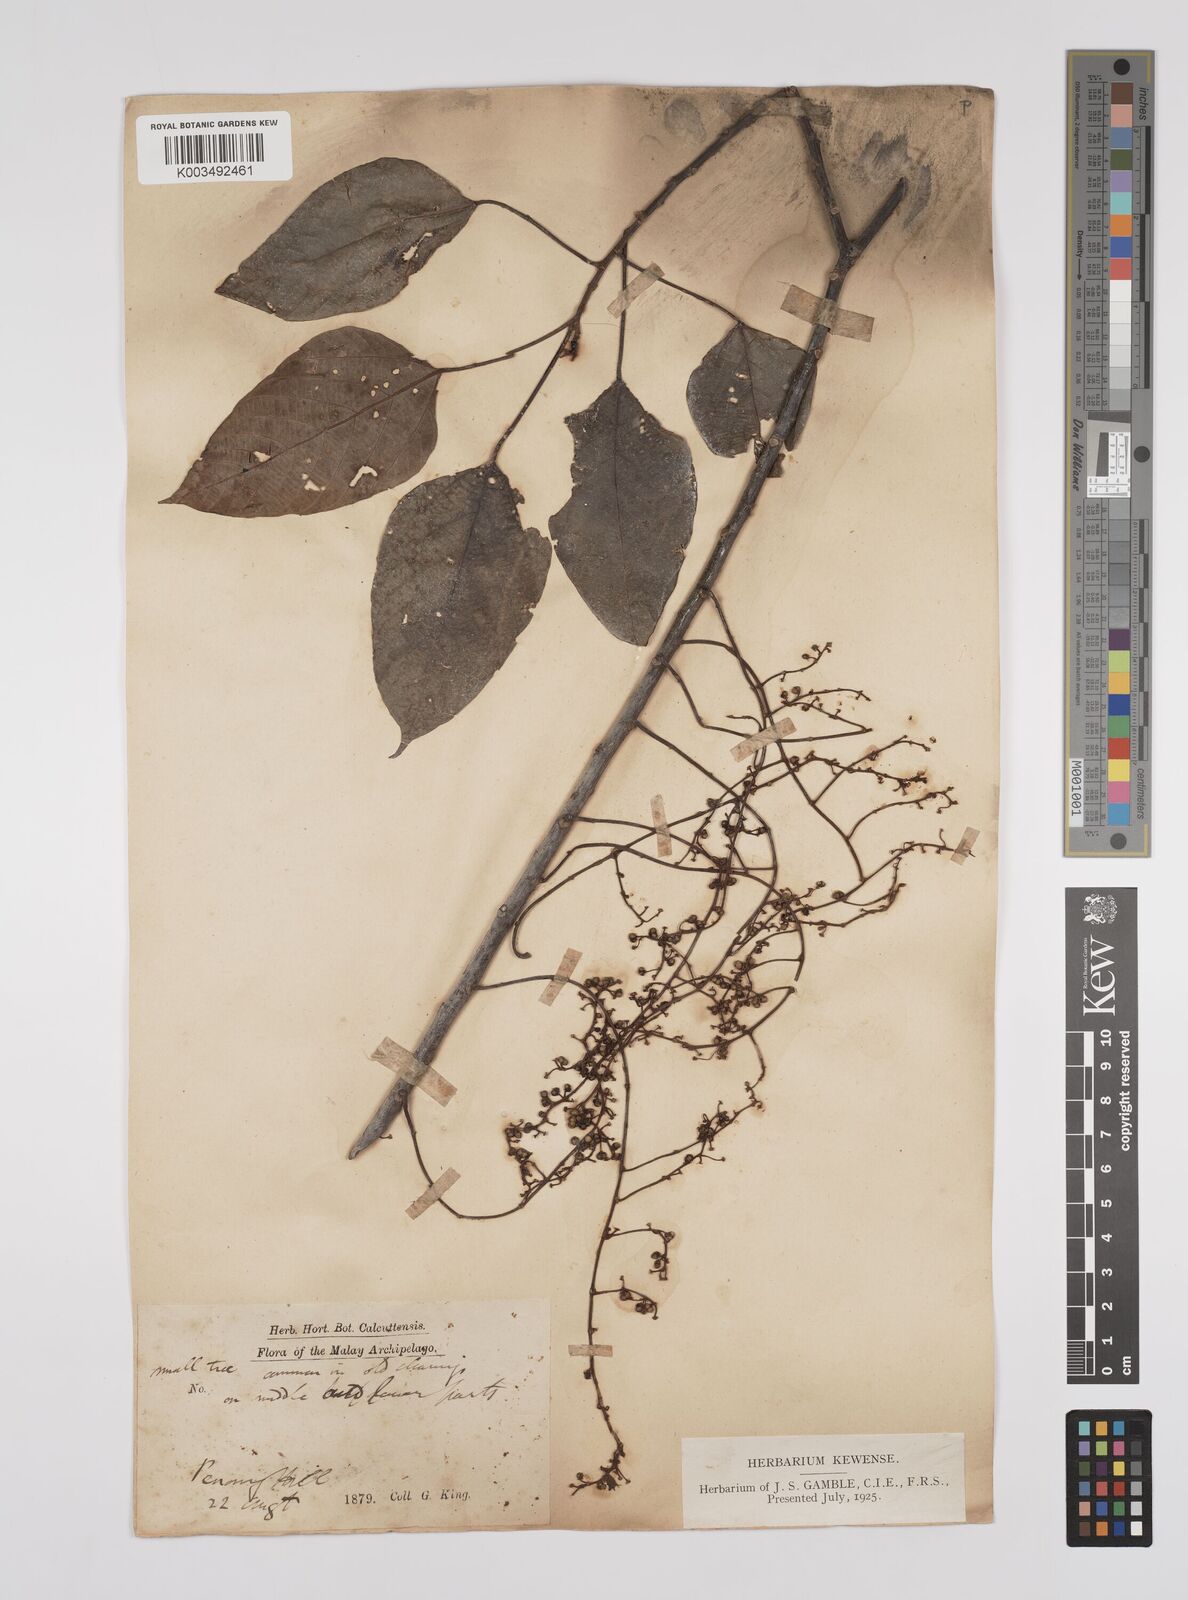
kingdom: Plantae
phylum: Tracheophyta
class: Magnoliopsida
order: Malpighiales
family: Euphorbiaceae
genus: Macaranga
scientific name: Macaranga heynei
